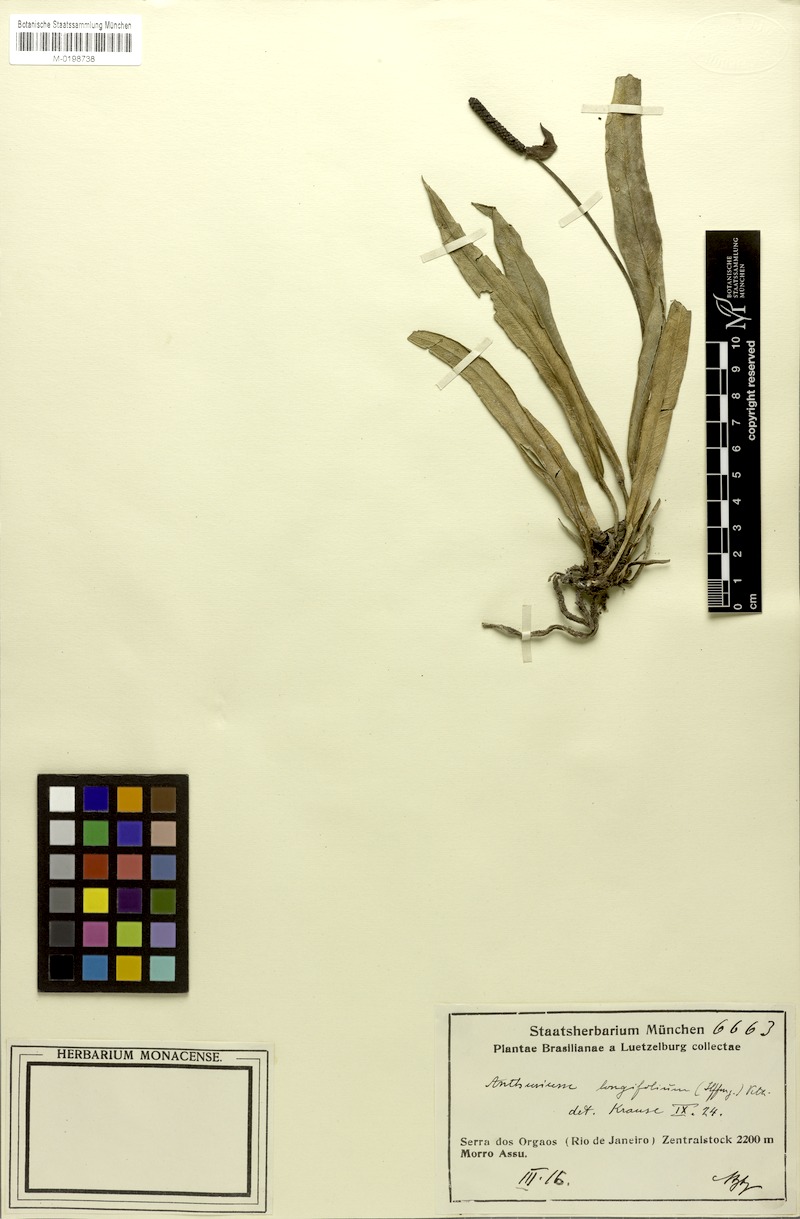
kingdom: Plantae
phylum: Tracheophyta
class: Liliopsida
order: Alismatales
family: Araceae
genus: Anthurium
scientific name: Anthurium longifolium
